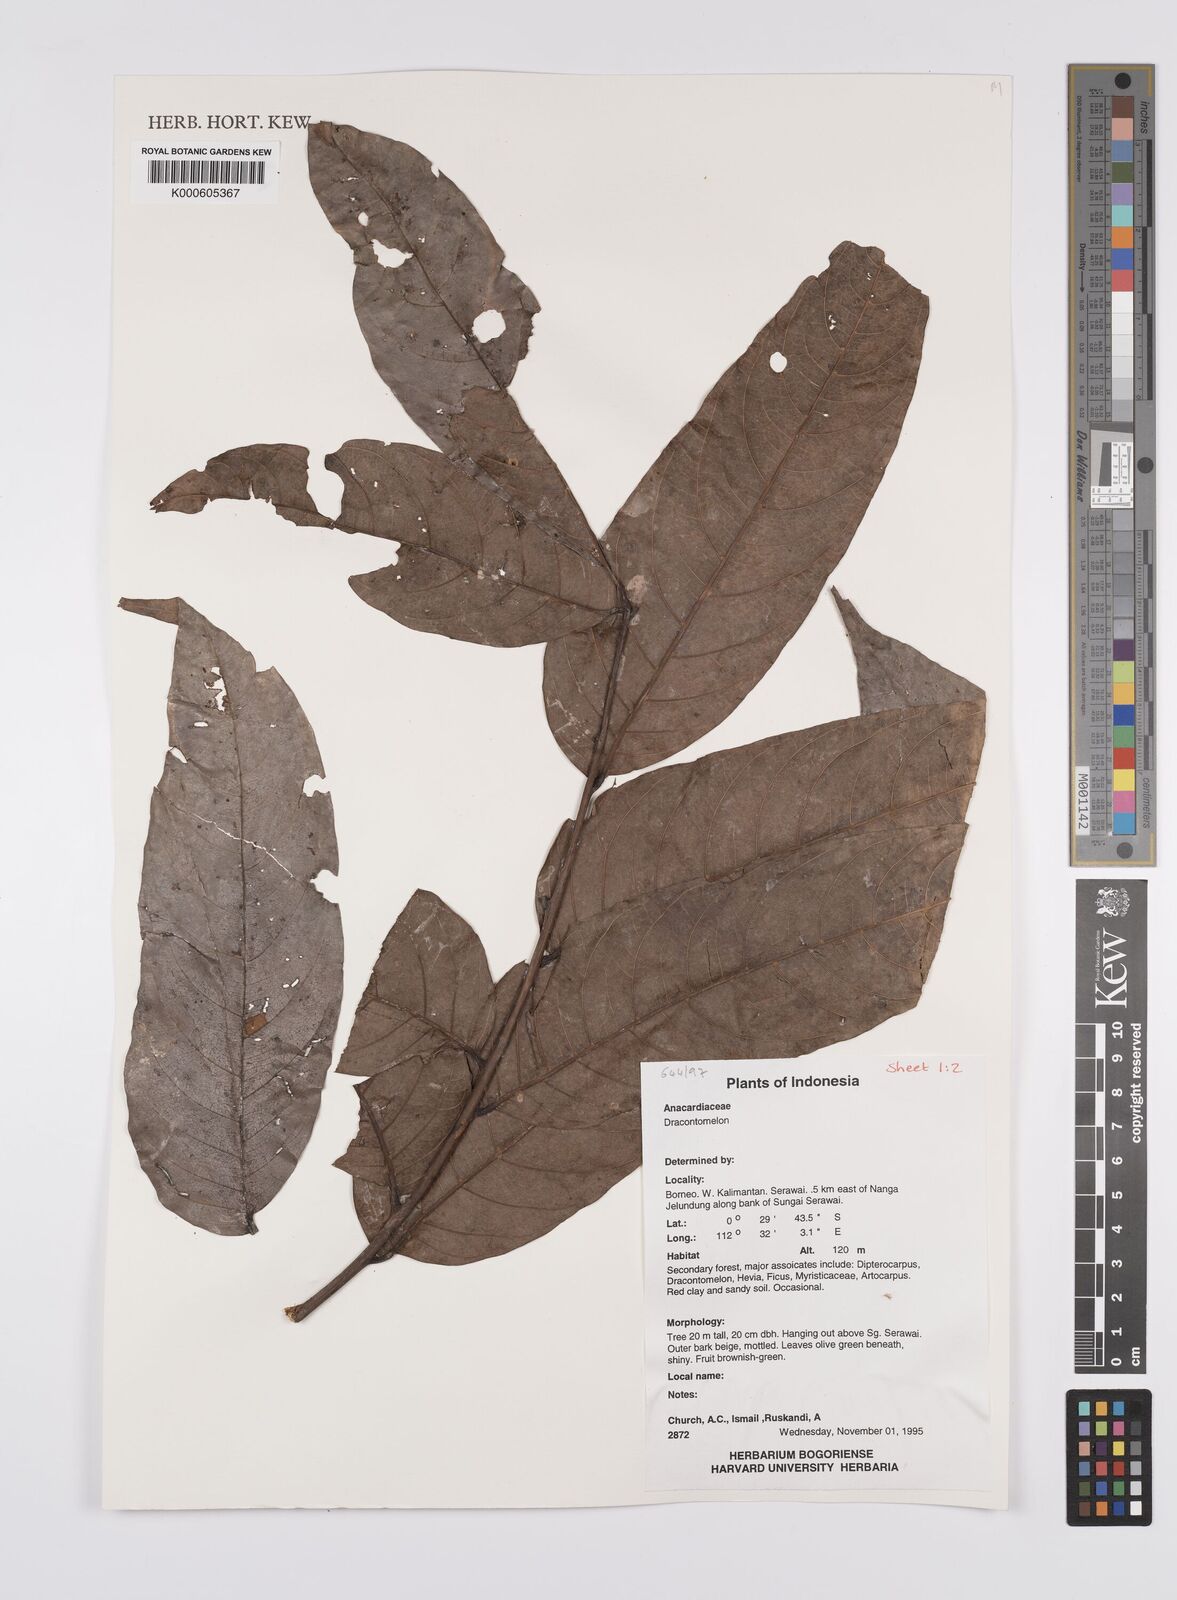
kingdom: Plantae
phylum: Tracheophyta
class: Magnoliopsida
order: Sapindales
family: Anacardiaceae
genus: Dracontomelon
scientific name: Dracontomelon dao
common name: Argus pheasant-tree
